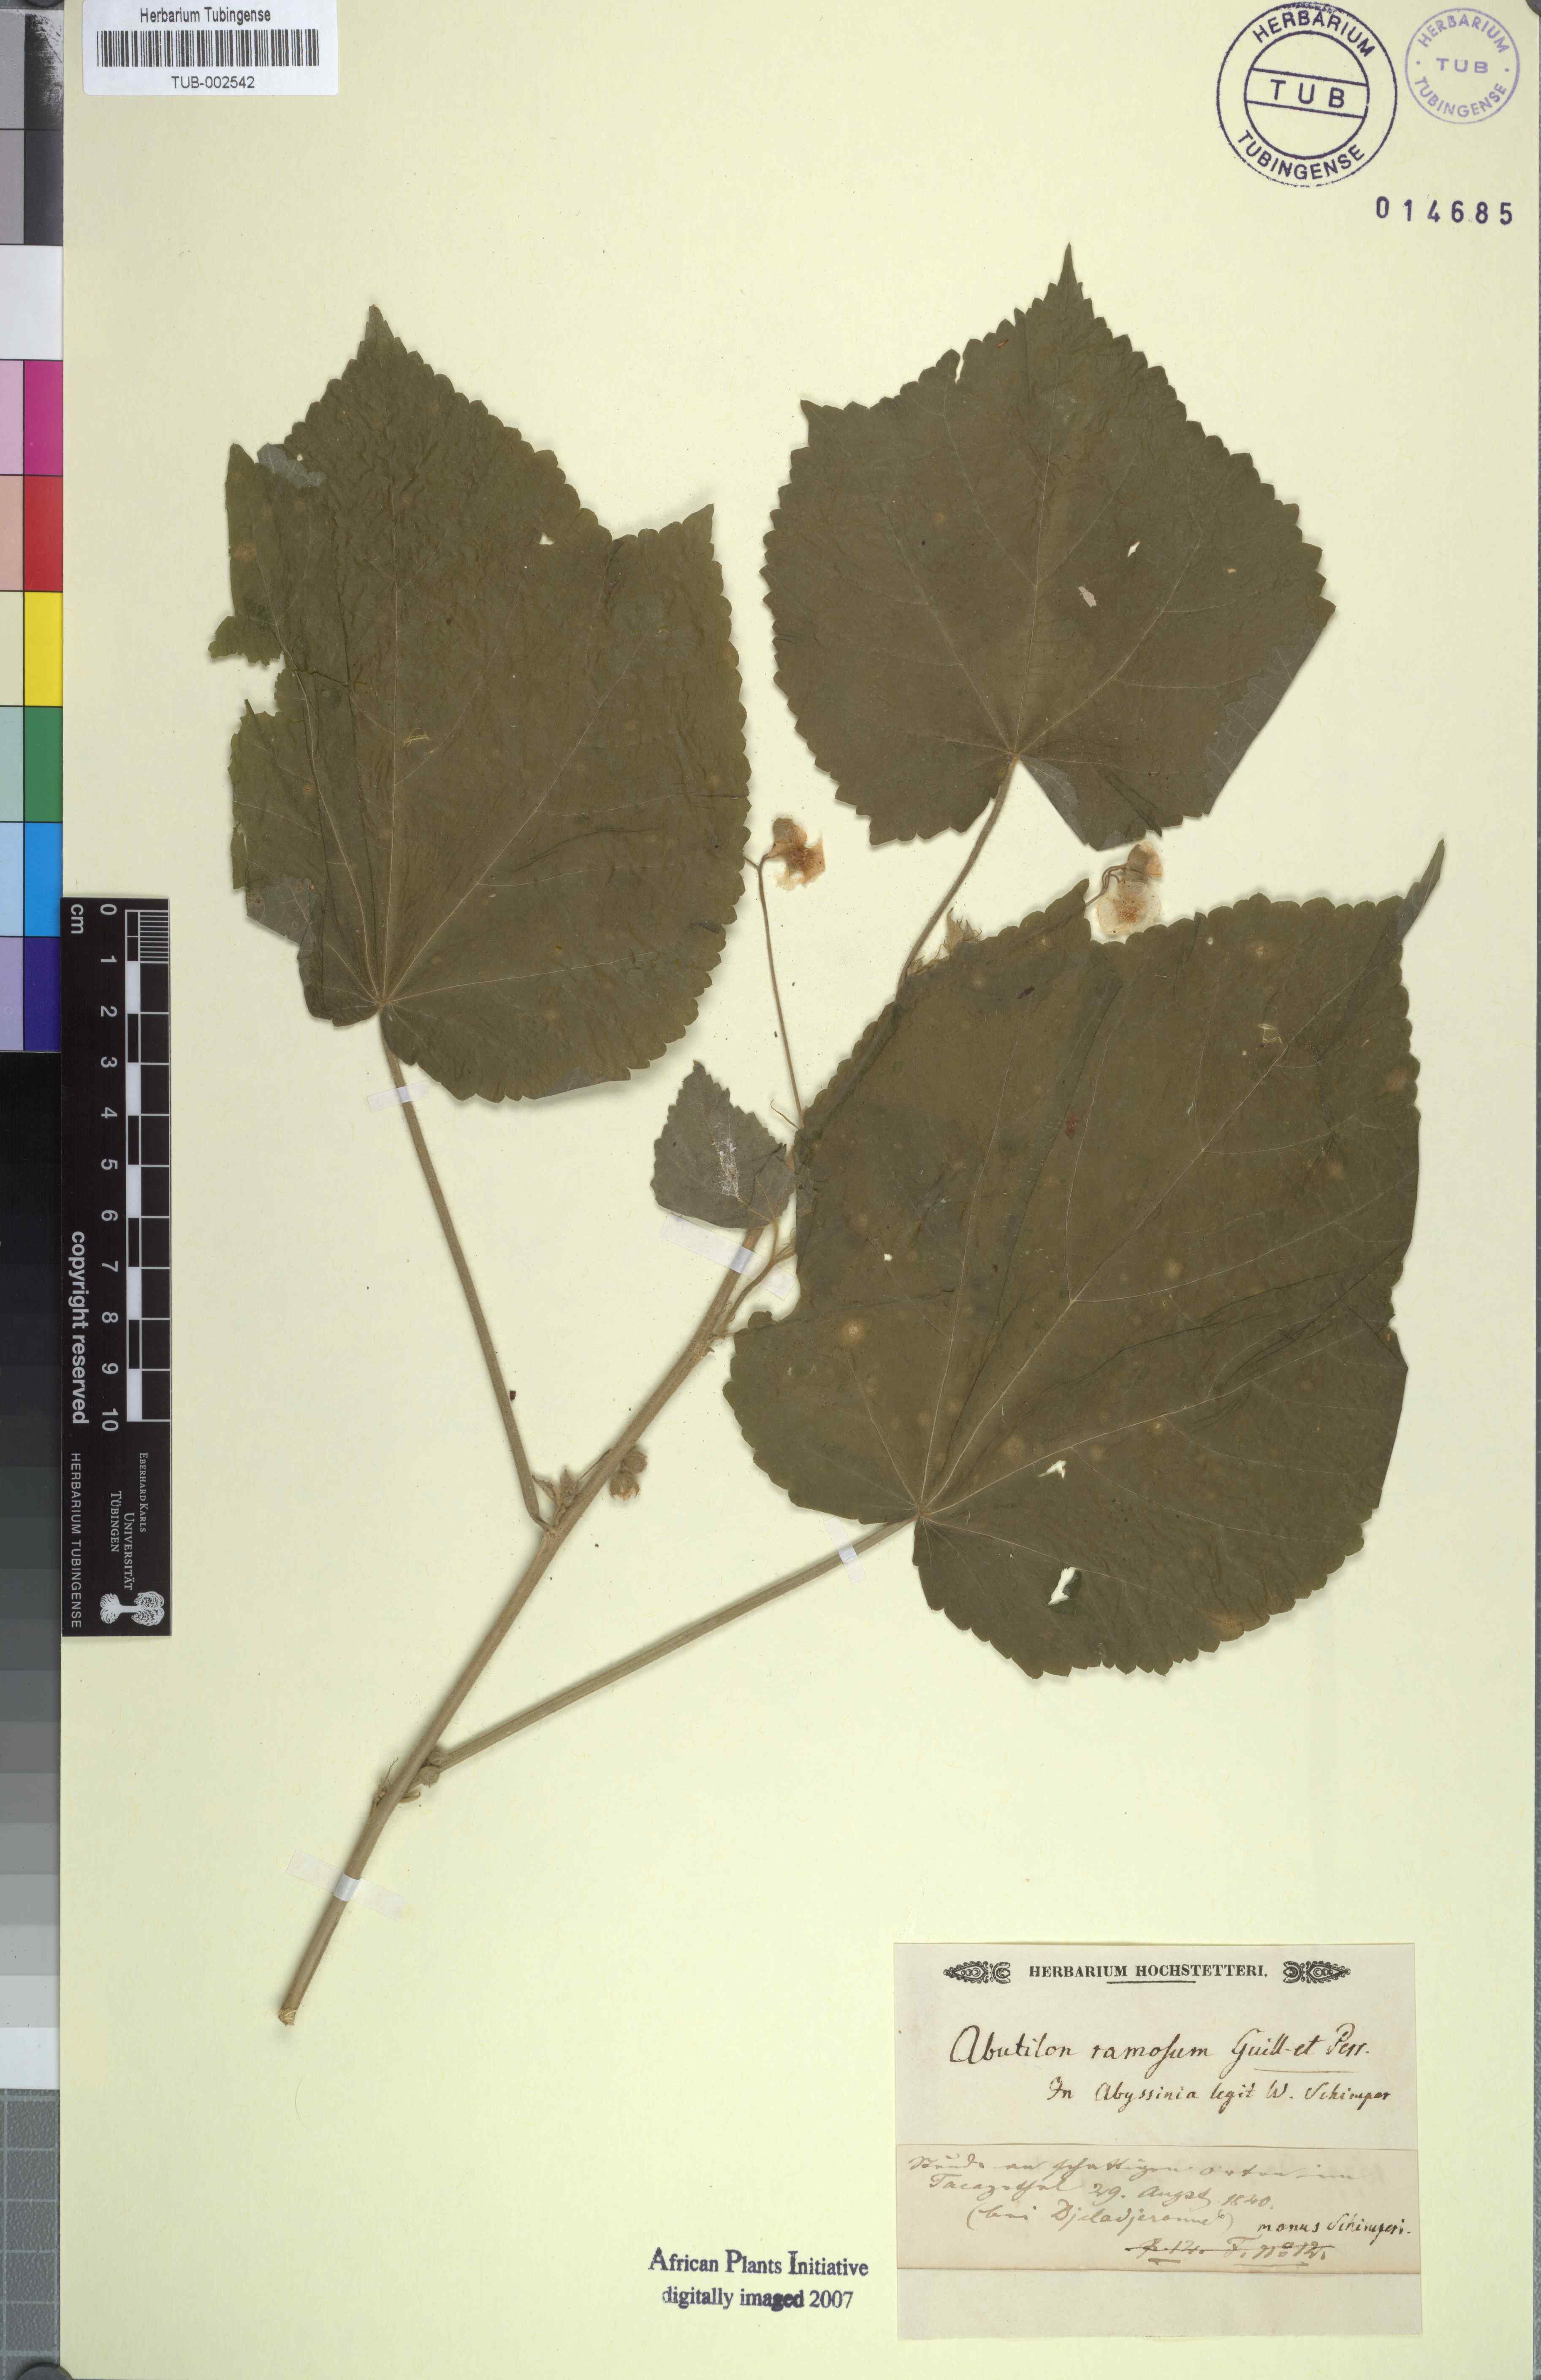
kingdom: Plantae
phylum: Tracheophyta
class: Magnoliopsida
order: Malvales
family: Malvaceae
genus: Abutilon
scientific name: Abutilon ramosum
